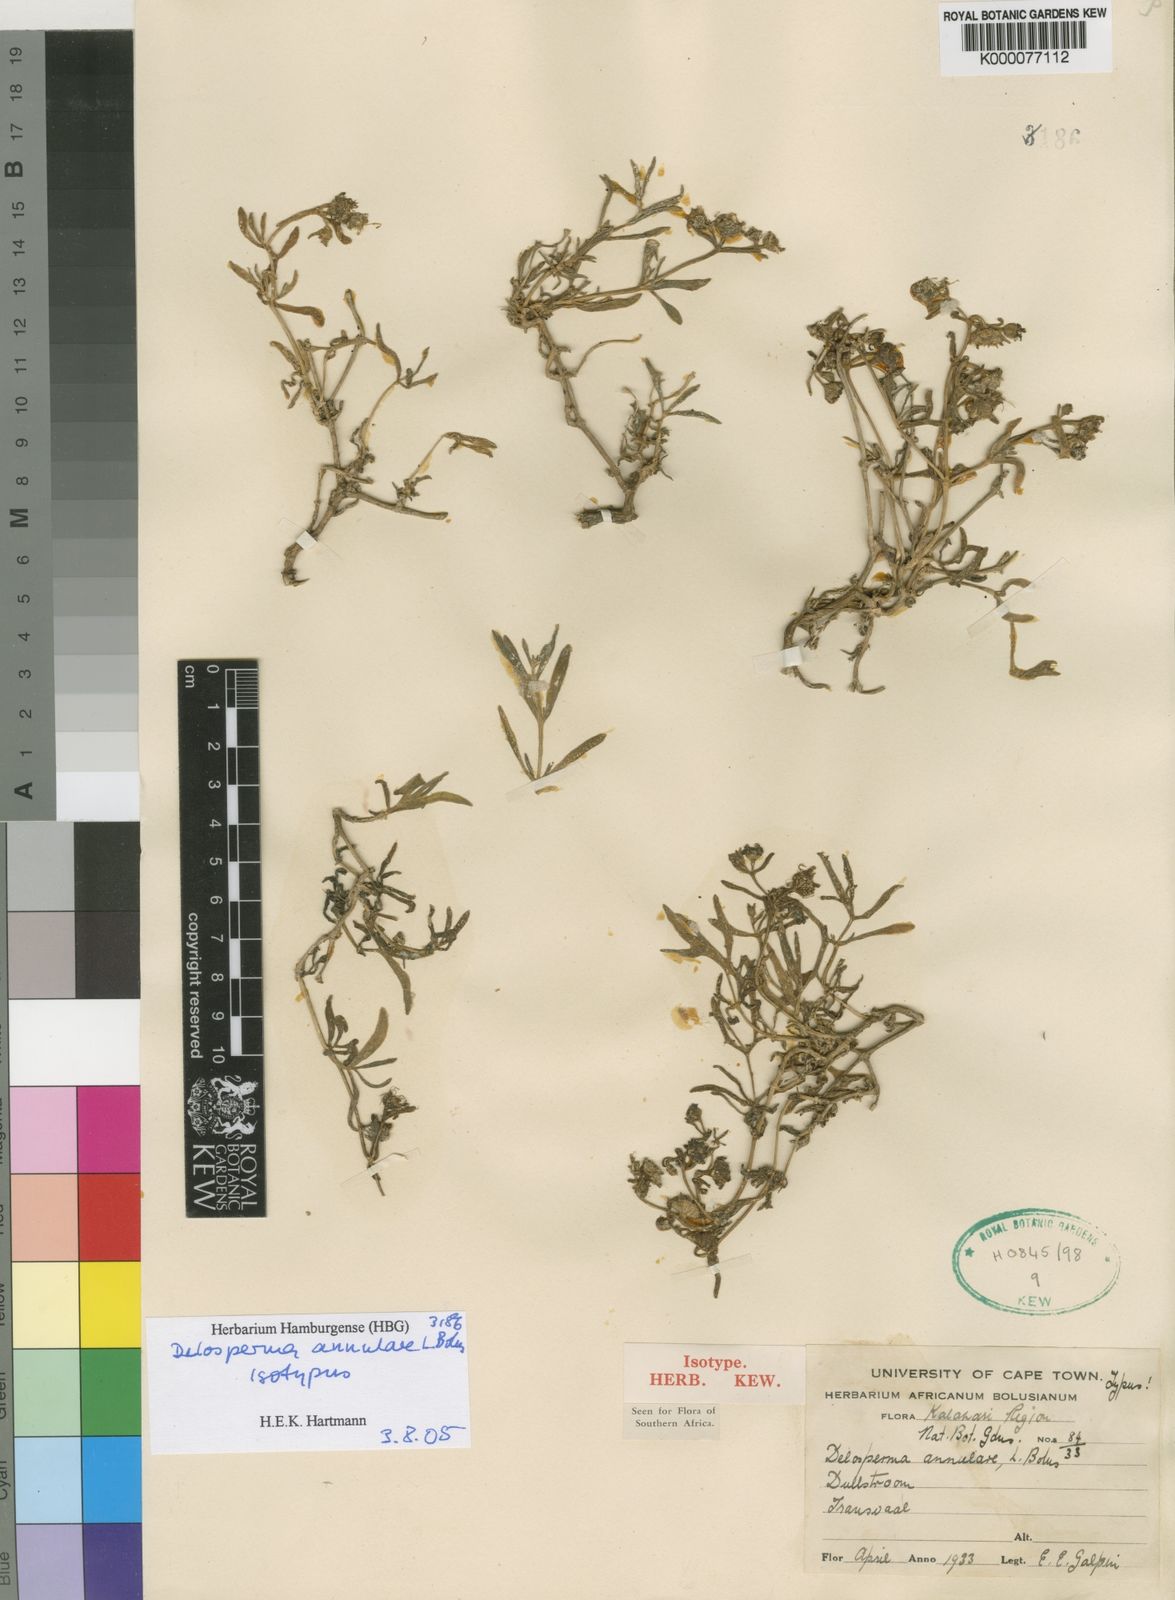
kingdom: Plantae
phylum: Tracheophyta
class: Magnoliopsida
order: Caryophyllales
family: Aizoaceae
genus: Delosperma
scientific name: Delosperma annulare
